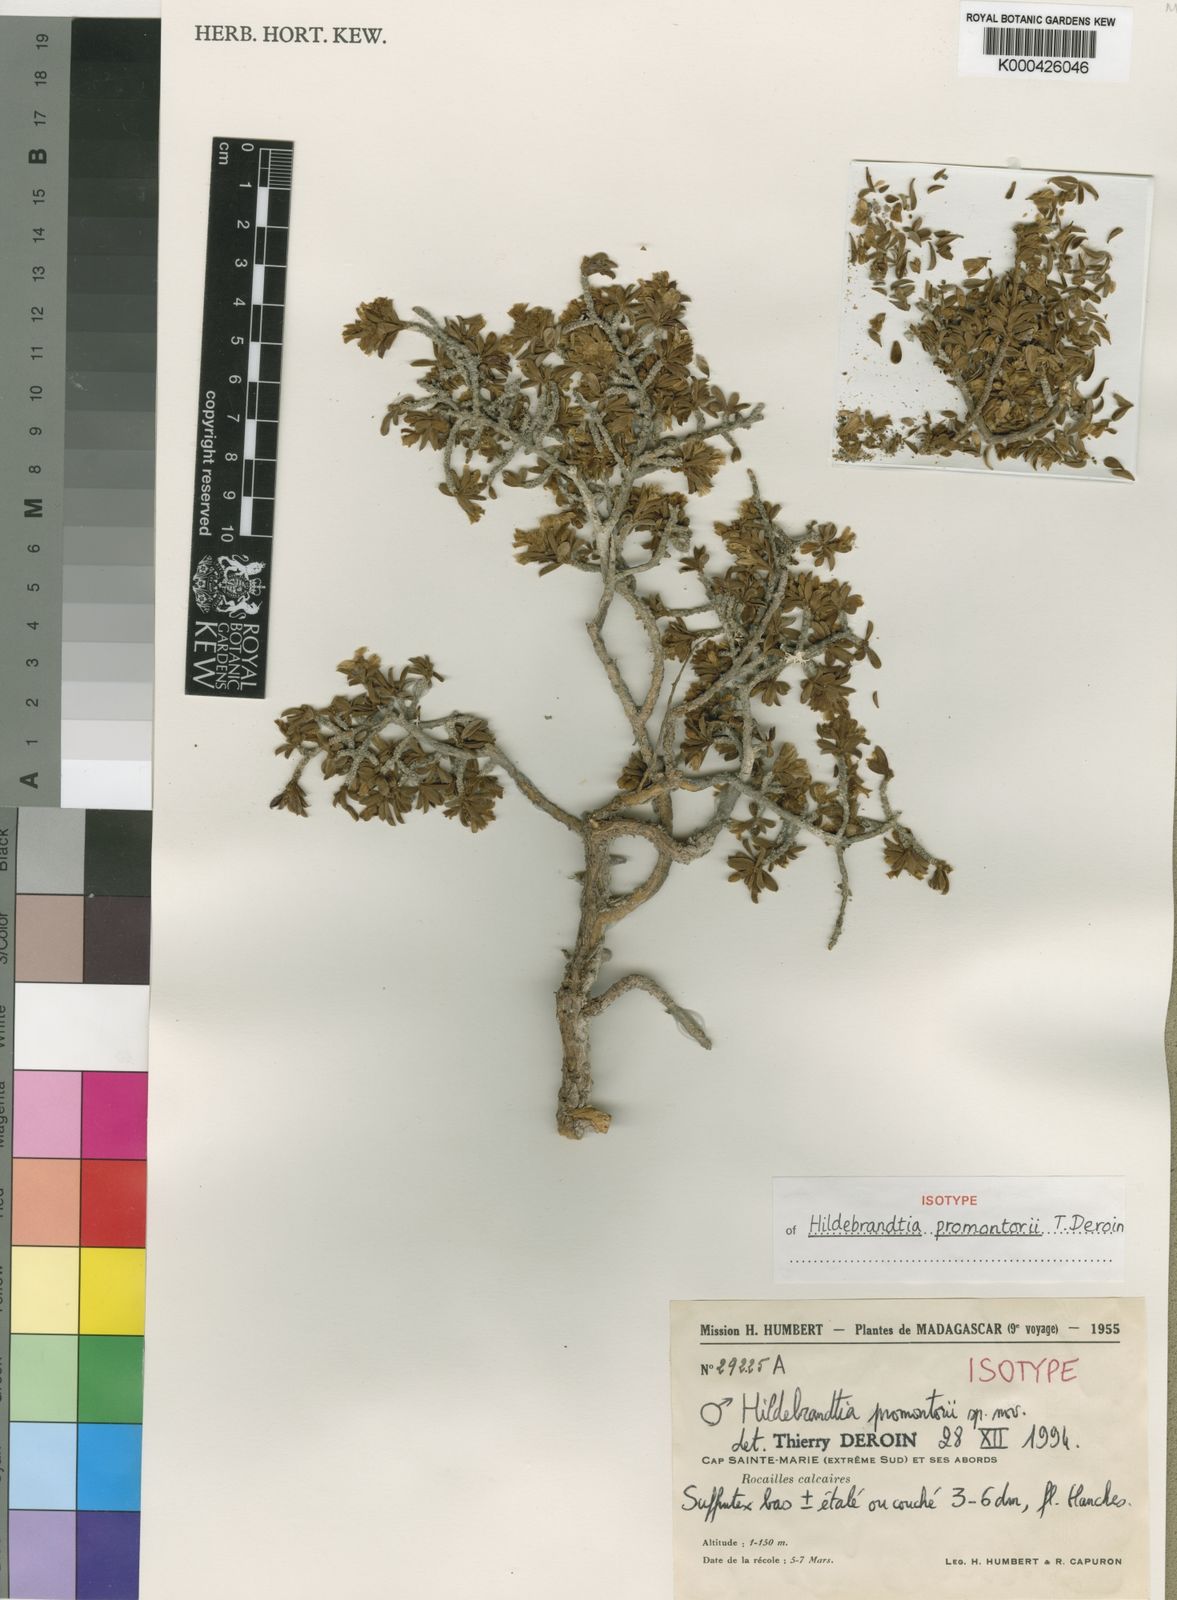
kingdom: Plantae
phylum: Tracheophyta
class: Magnoliopsida
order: Solanales
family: Convolvulaceae
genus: Hildebrandtia
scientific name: Hildebrandtia promontorii
